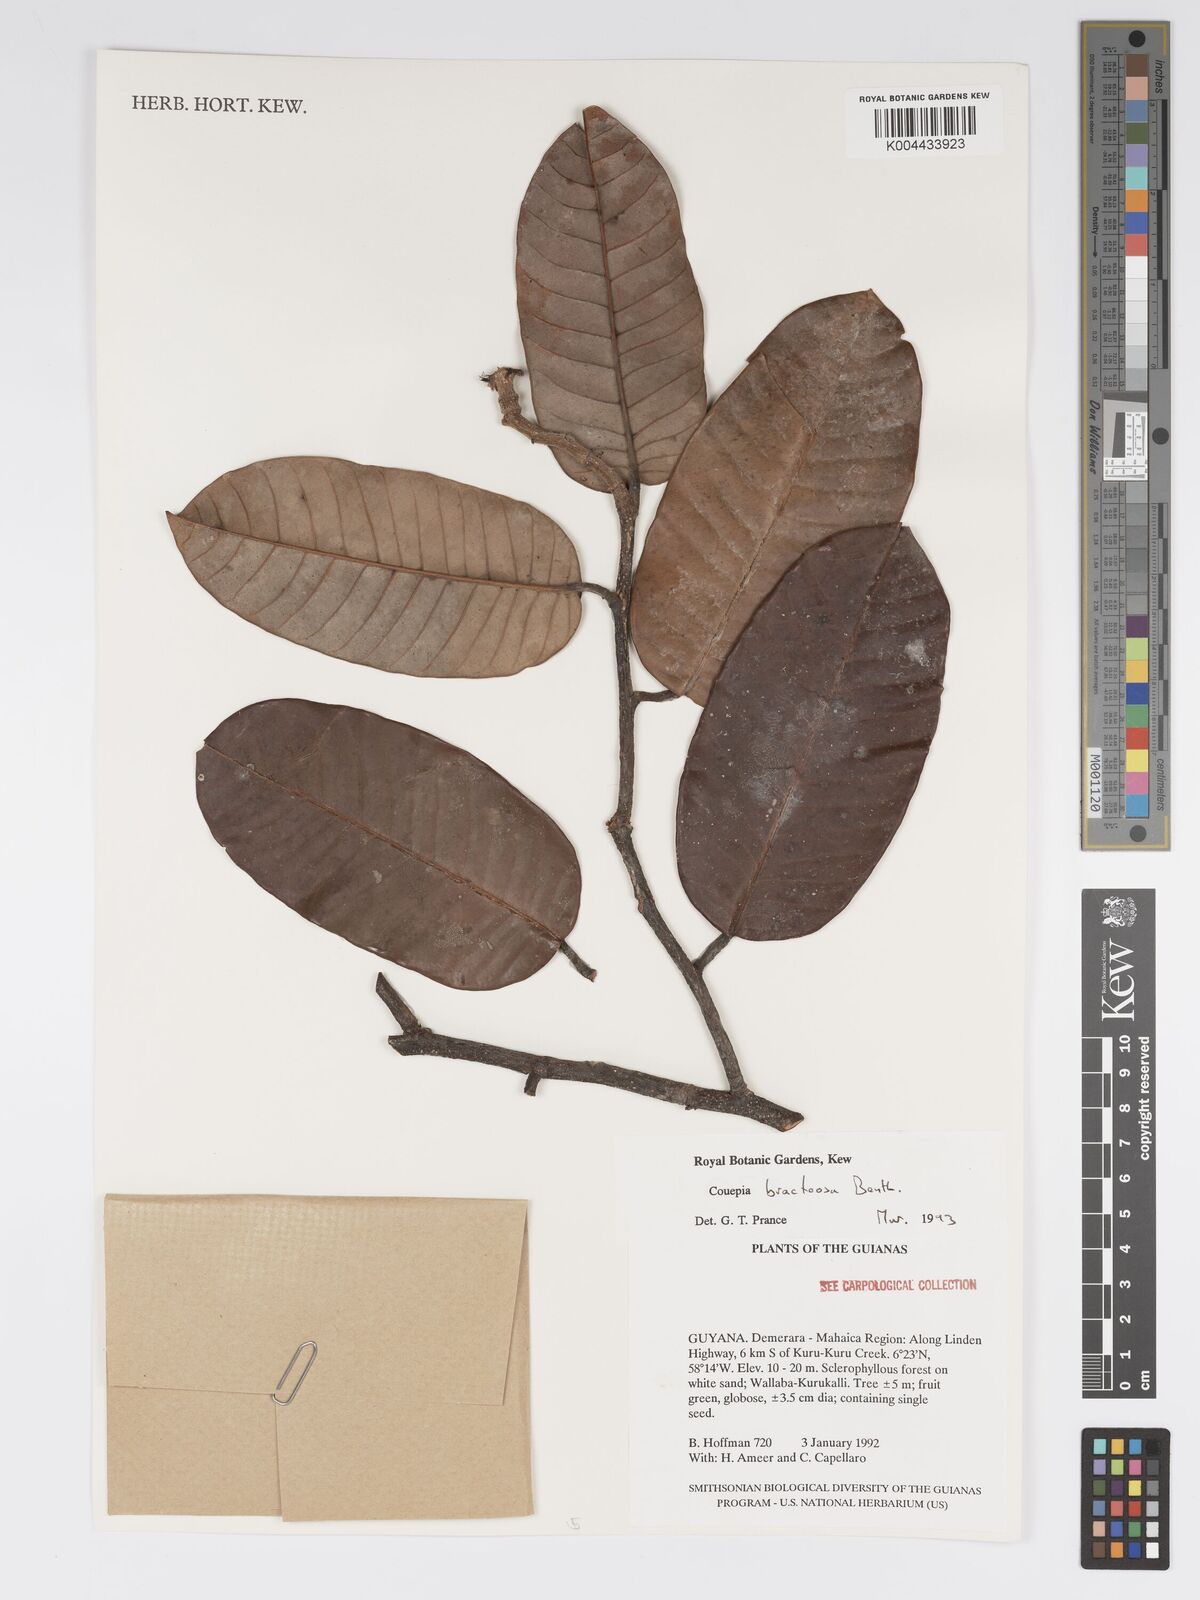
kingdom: Plantae
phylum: Tracheophyta
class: Magnoliopsida
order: Malpighiales
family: Chrysobalanaceae
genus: Couepia
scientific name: Couepia bracteosa
